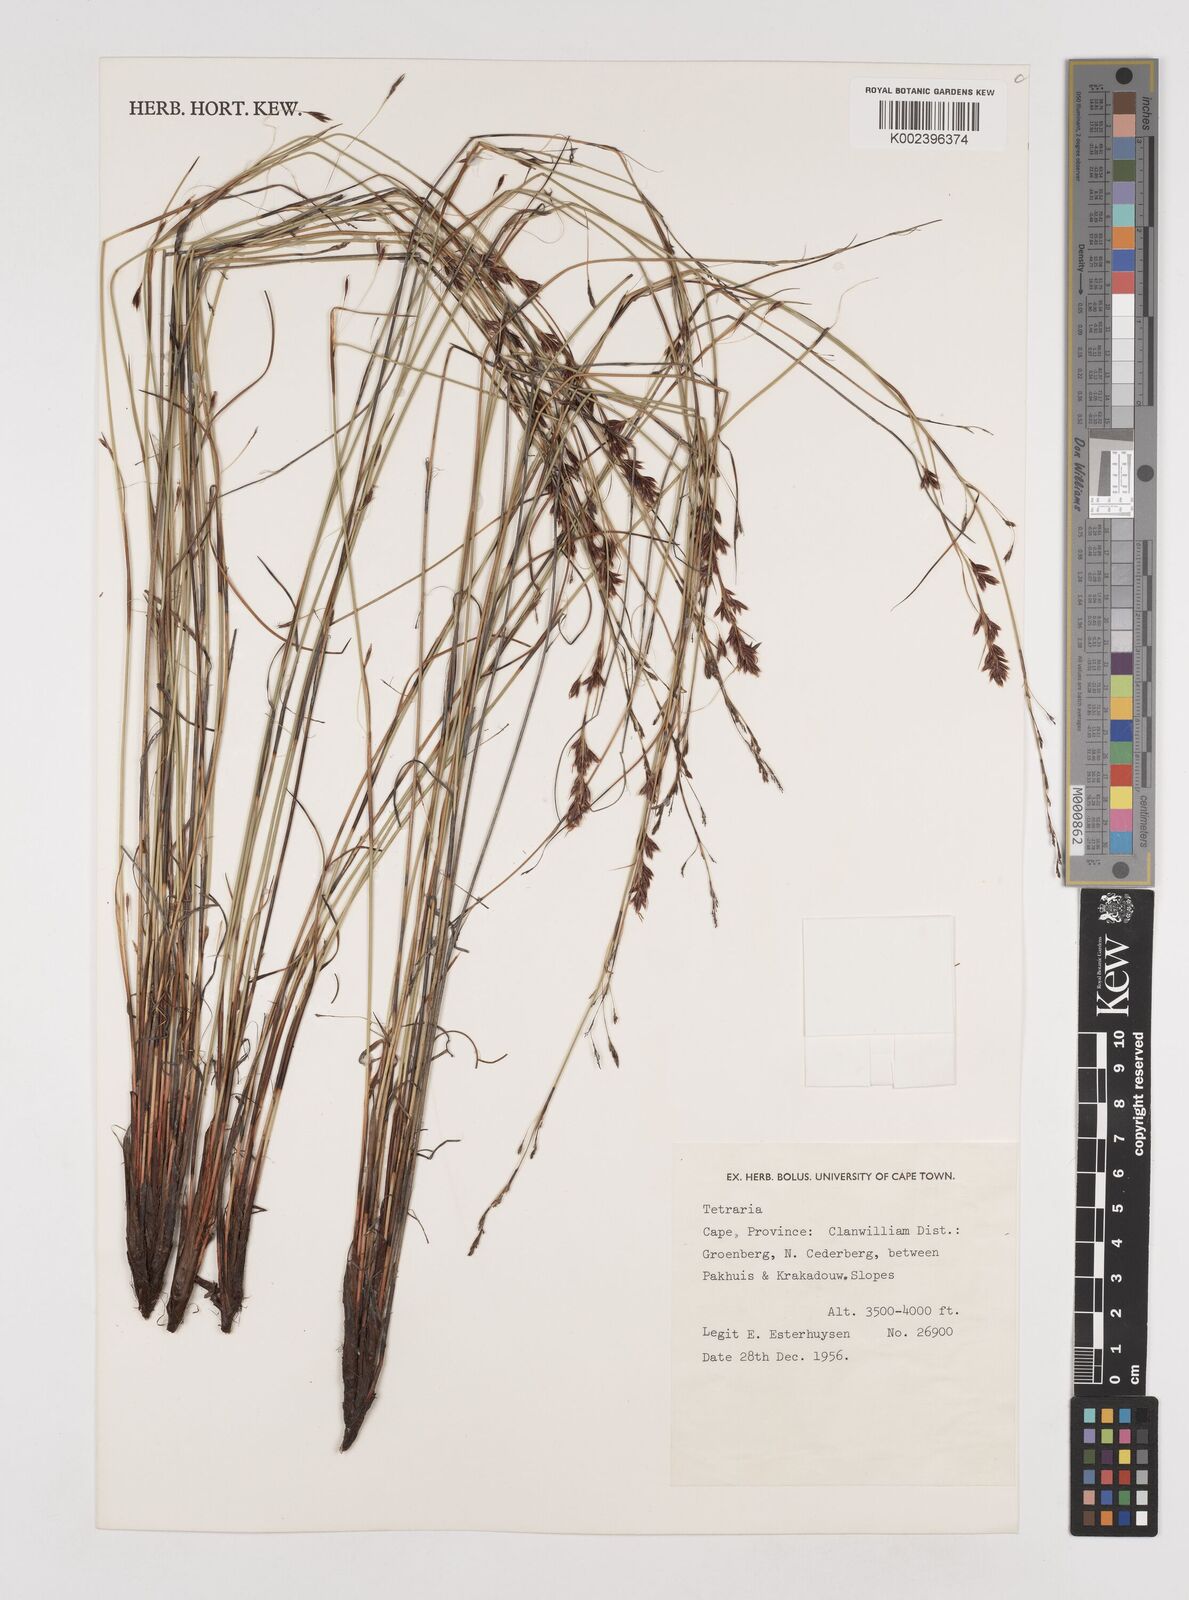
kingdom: Plantae
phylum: Tracheophyta
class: Liliopsida
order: Poales
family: Cyperaceae
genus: Tetraria
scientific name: Tetraria
